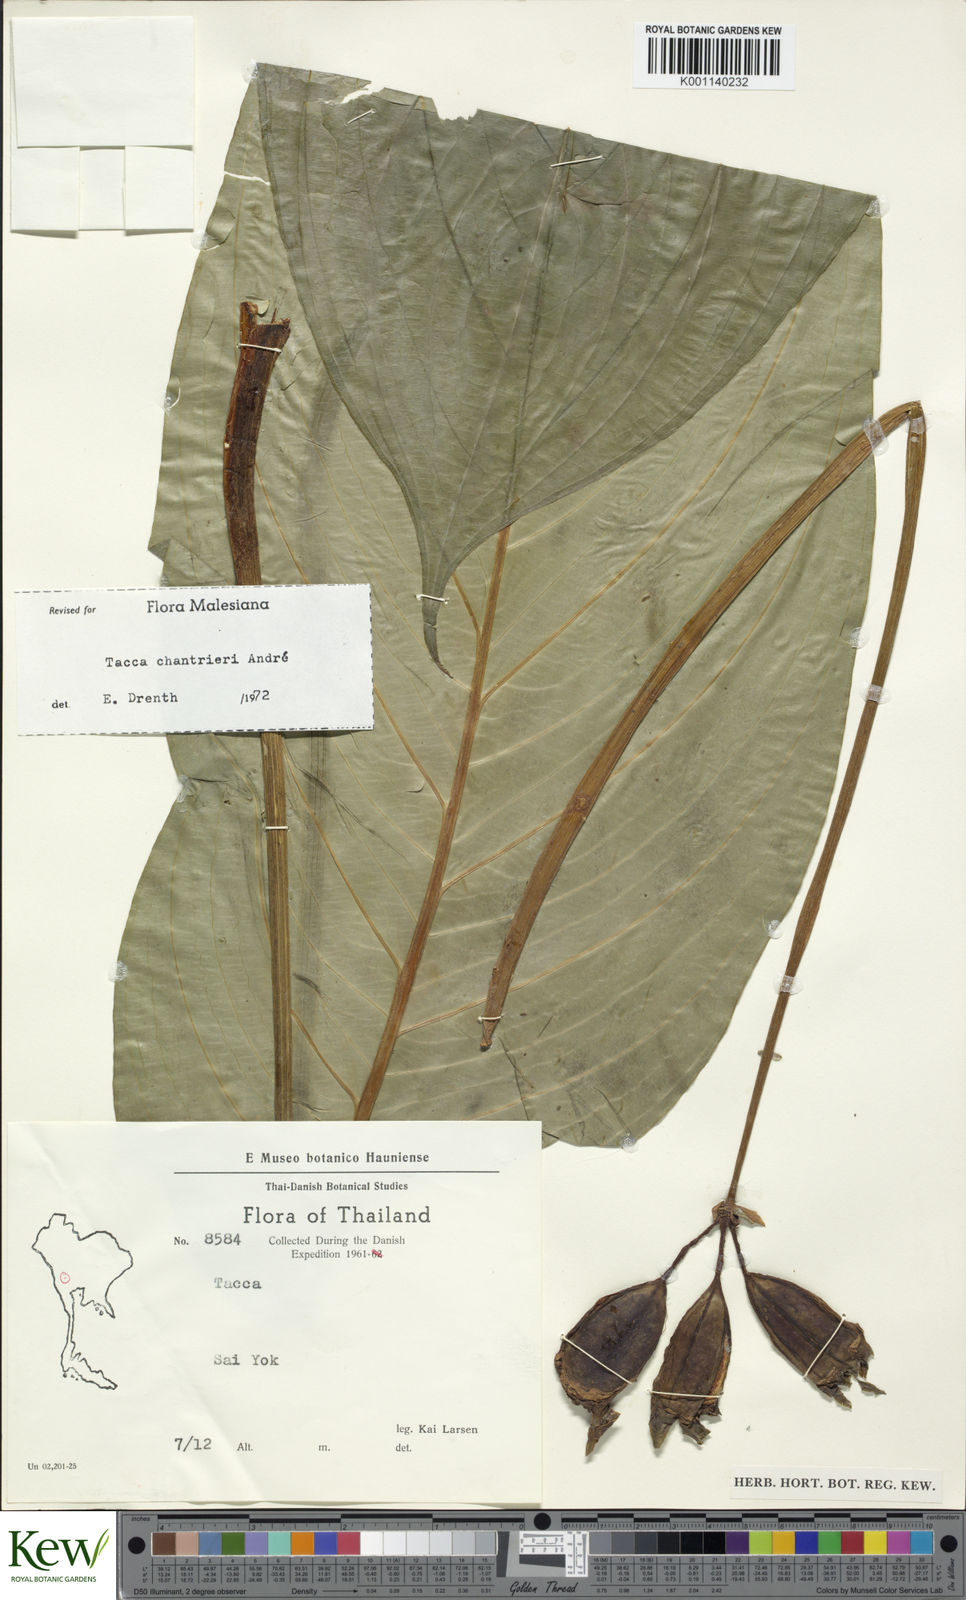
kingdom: Plantae
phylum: Tracheophyta
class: Liliopsida
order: Dioscoreales
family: Dioscoreaceae
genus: Tacca
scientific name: Tacca
